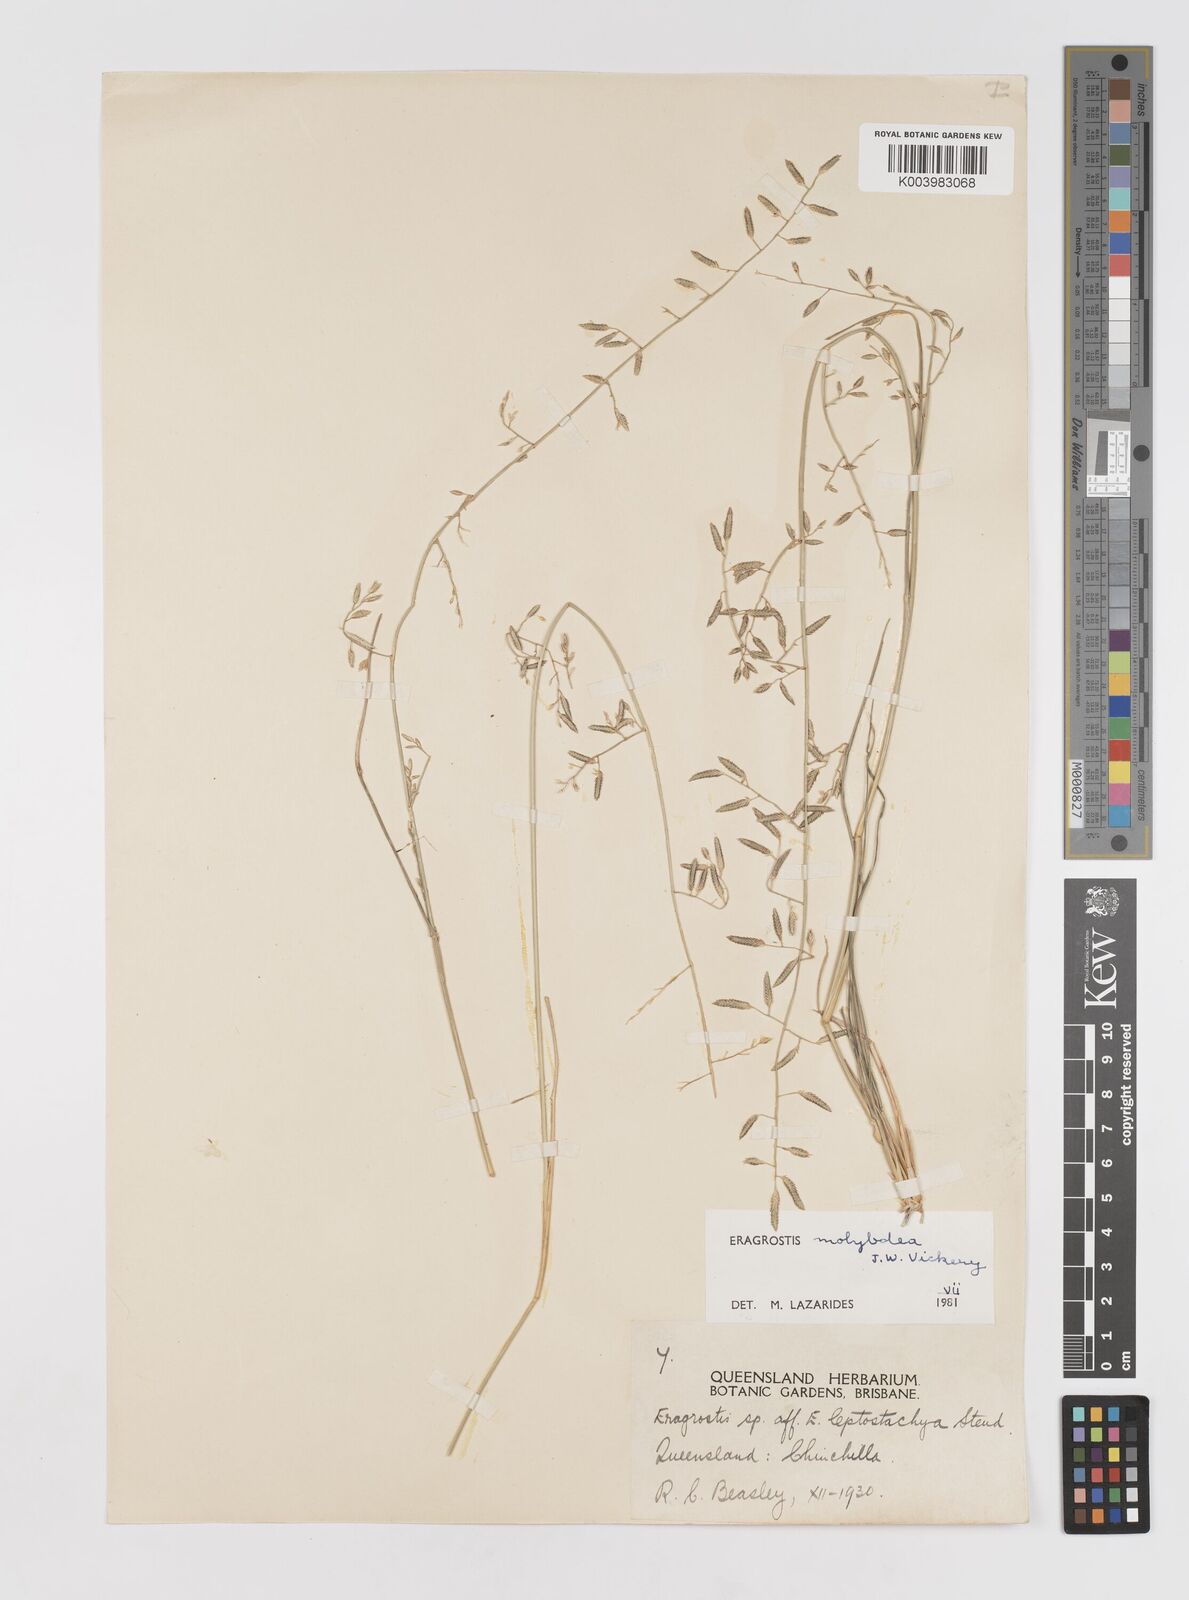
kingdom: Plantae
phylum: Tracheophyta
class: Liliopsida
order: Poales
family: Poaceae
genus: Eragrostis
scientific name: Eragrostis leptostachya
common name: Australian lovegrass
